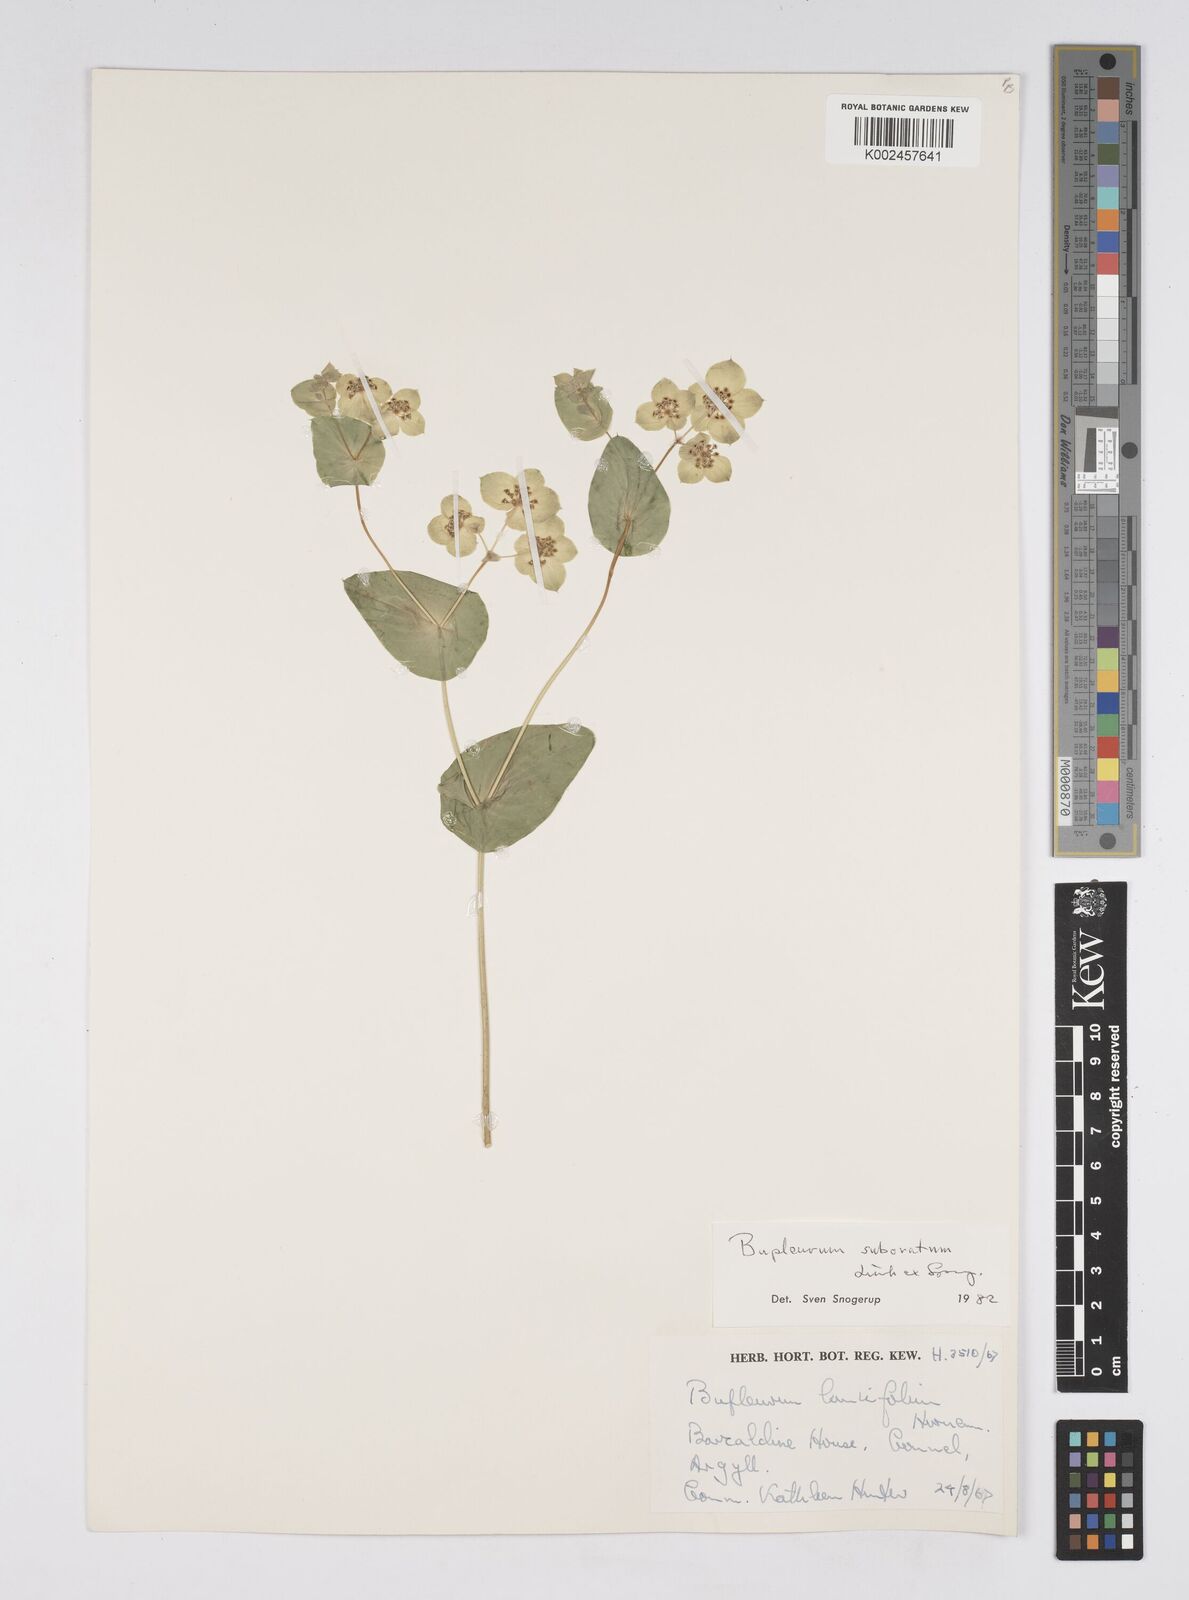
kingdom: Plantae
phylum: Tracheophyta
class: Magnoliopsida
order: Apiales
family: Apiaceae
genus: Bupleurum
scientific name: Bupleurum subovatum
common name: False thorow-wax
